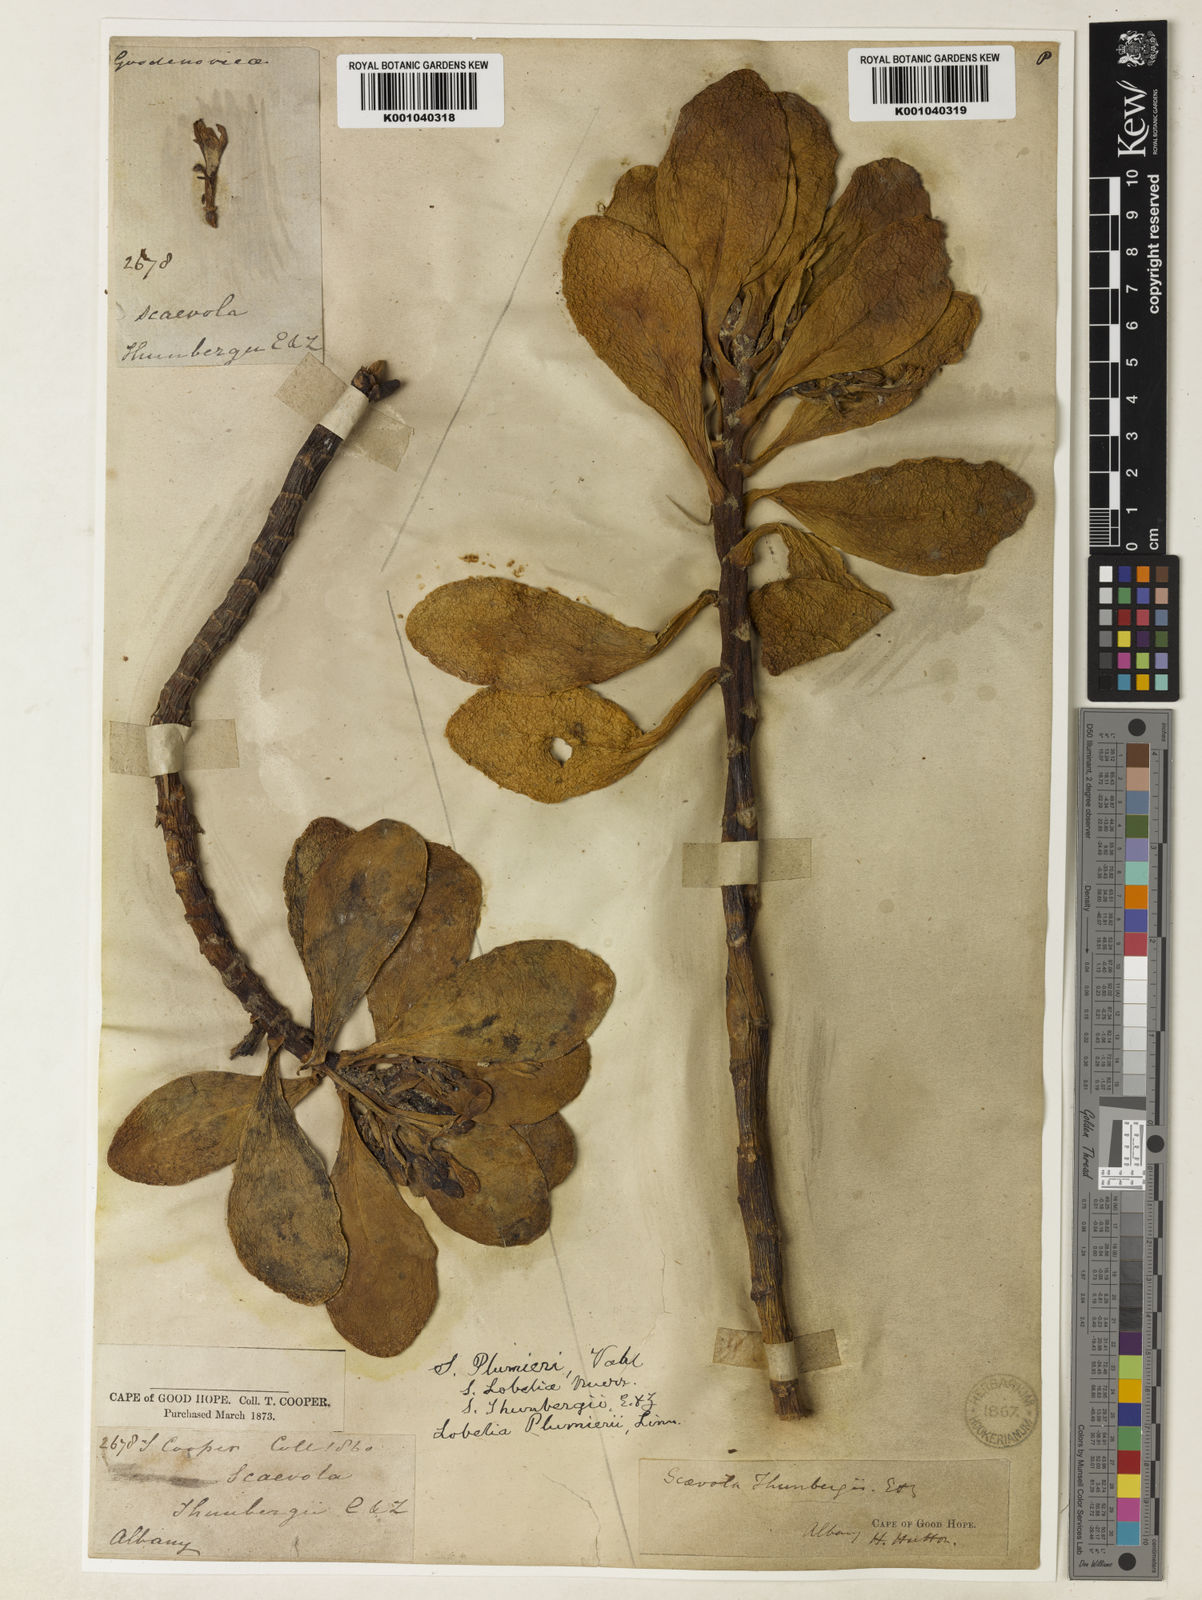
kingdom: Plantae
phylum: Tracheophyta
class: Magnoliopsida
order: Asterales
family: Goodeniaceae
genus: Scaevola
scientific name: Scaevola plumieri
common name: Gull feed
